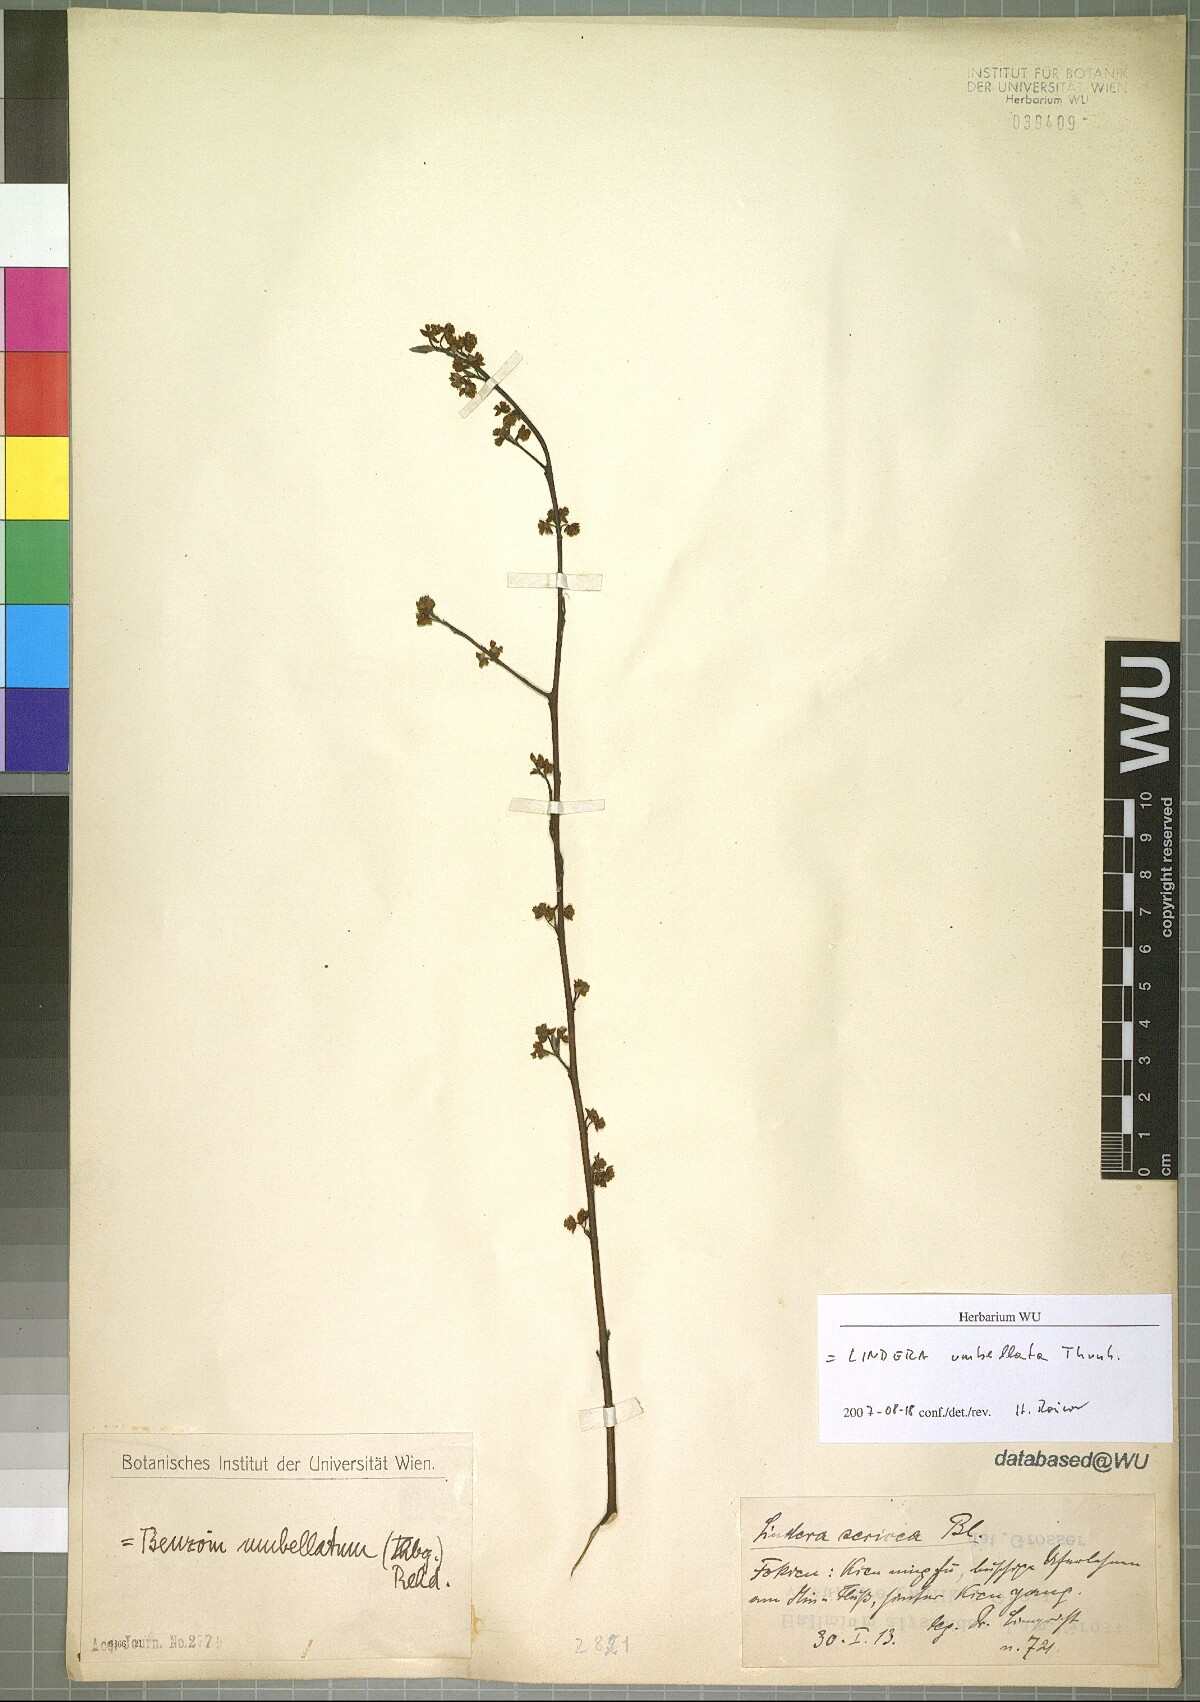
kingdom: Plantae
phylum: Tracheophyta
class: Magnoliopsida
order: Laurales
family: Lauraceae
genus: Lindera
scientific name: Lindera umbellata
